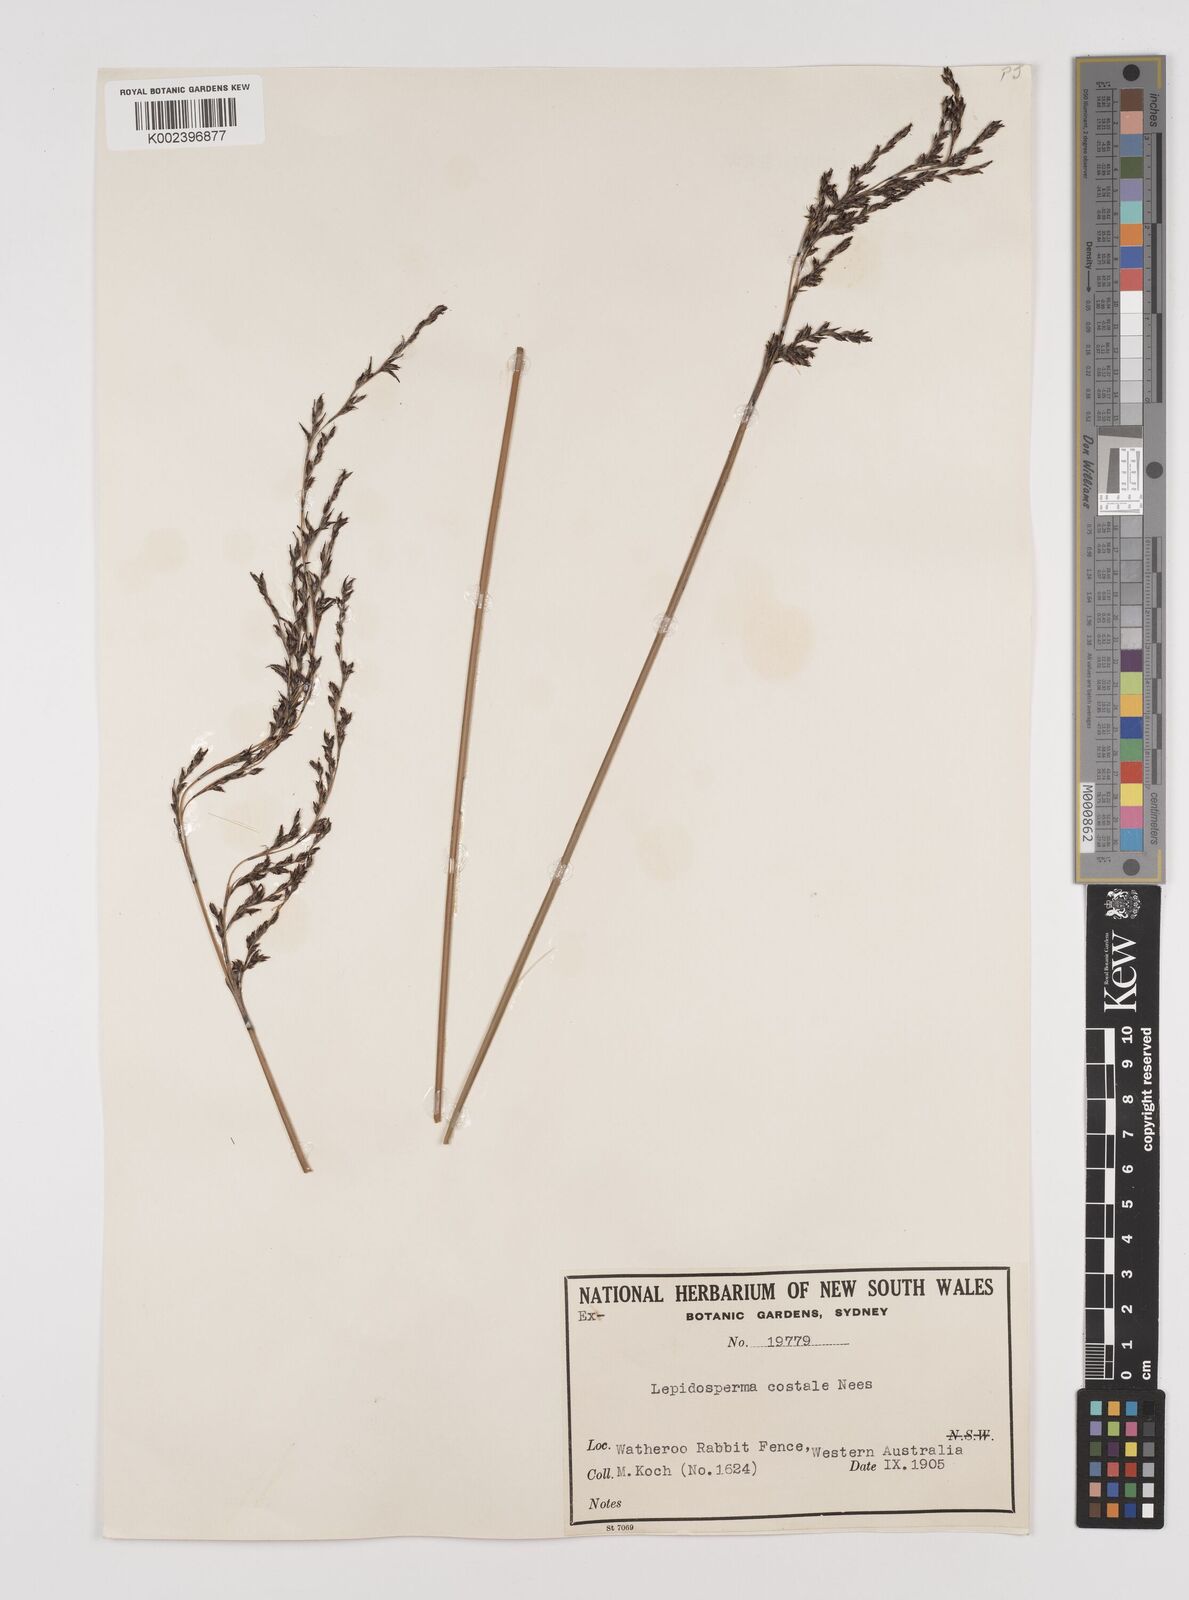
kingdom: Plantae
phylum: Tracheophyta
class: Liliopsida
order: Poales
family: Cyperaceae
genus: Lepidosperma
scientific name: Lepidosperma costale
